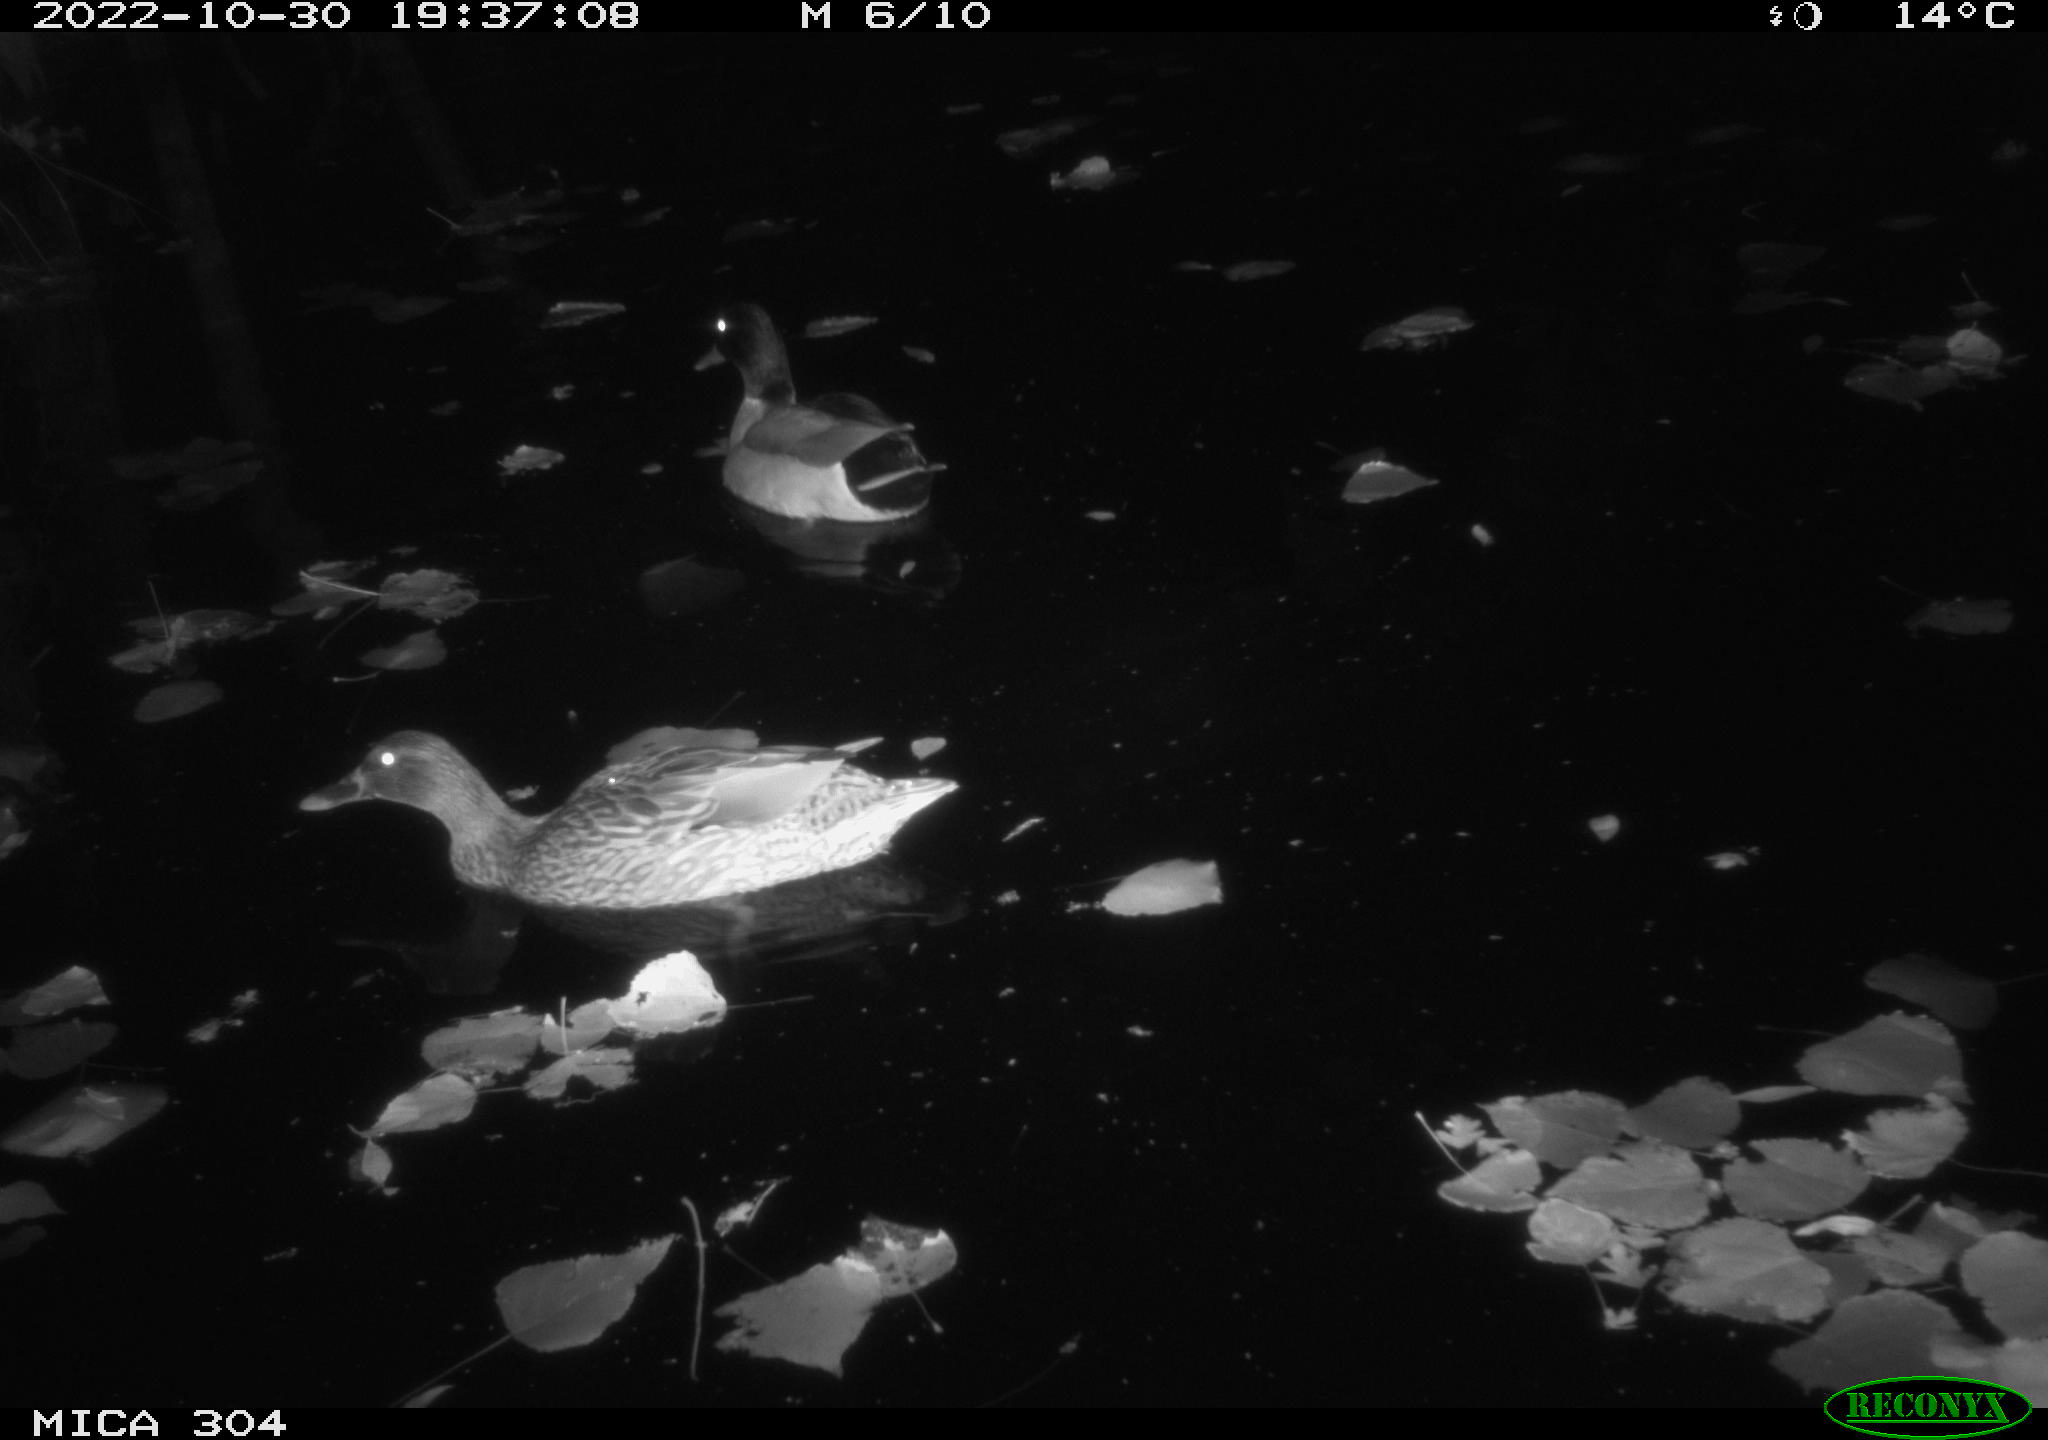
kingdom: Animalia
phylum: Chordata
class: Aves
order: Anseriformes
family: Anatidae
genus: Anas
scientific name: Anas
